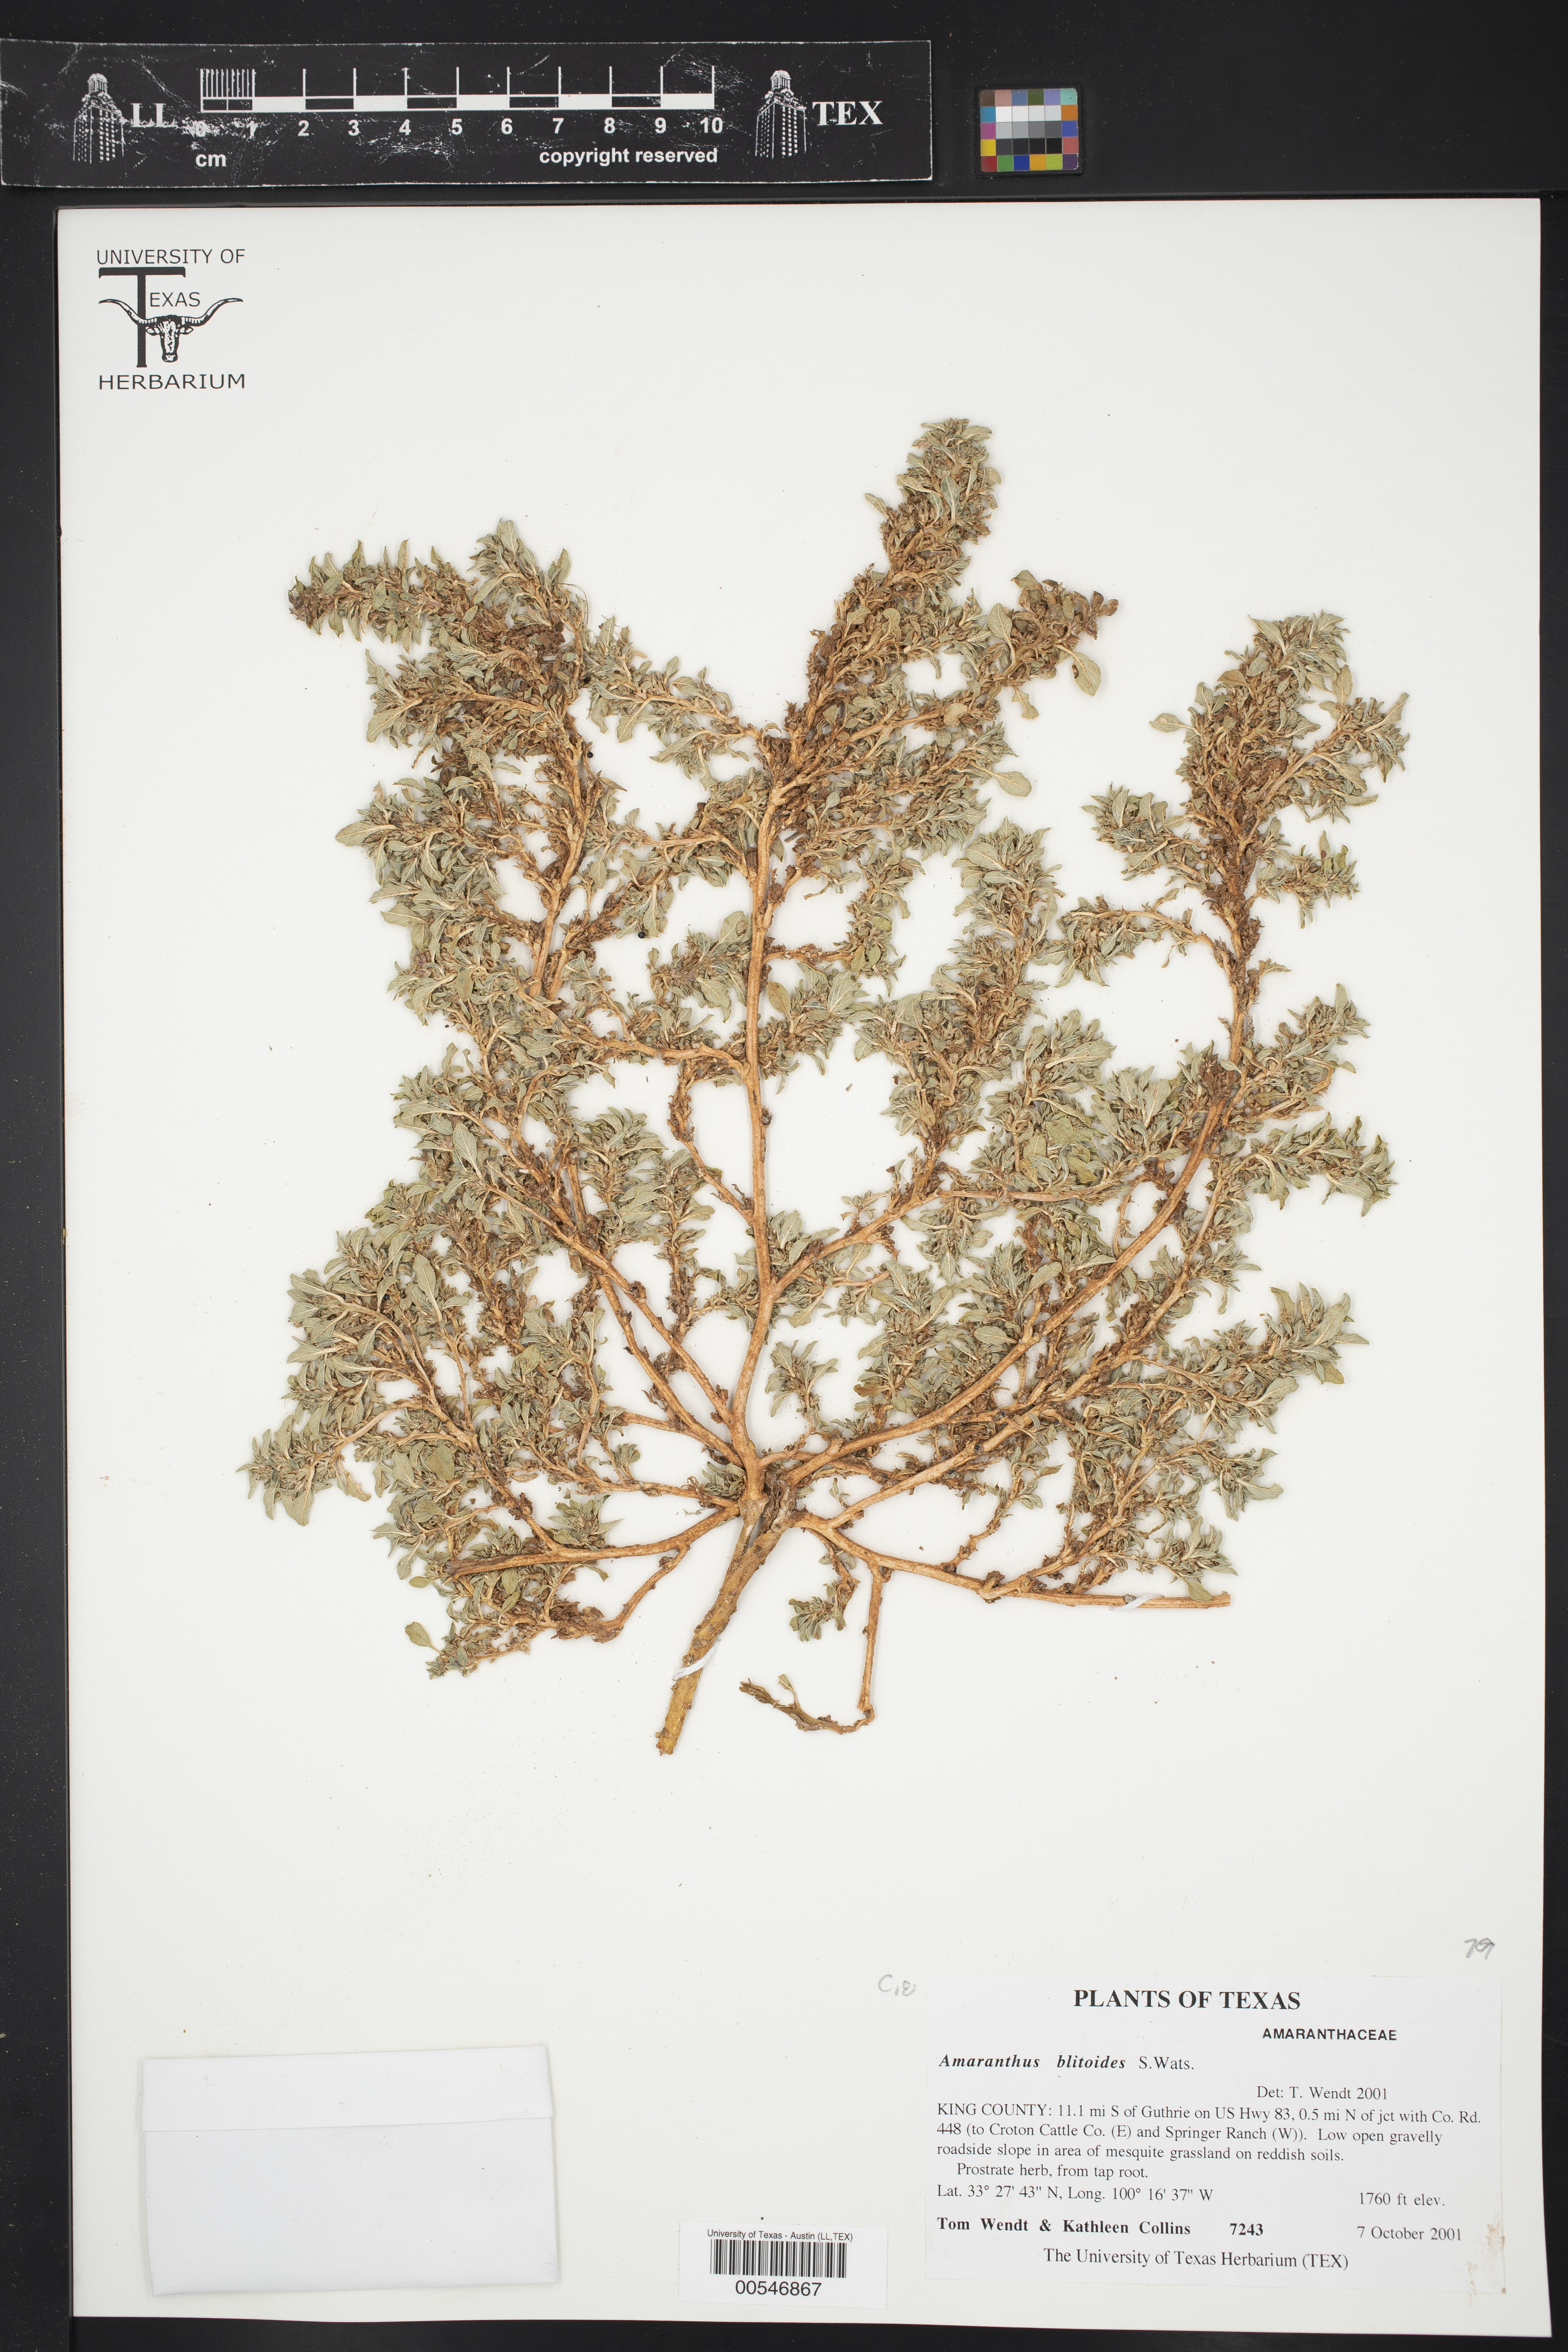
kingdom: Plantae
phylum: Tracheophyta
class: Magnoliopsida
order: Caryophyllales
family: Amaranthaceae
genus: Amaranthus
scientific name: Amaranthus blitoides
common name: Prostrate pigweed
